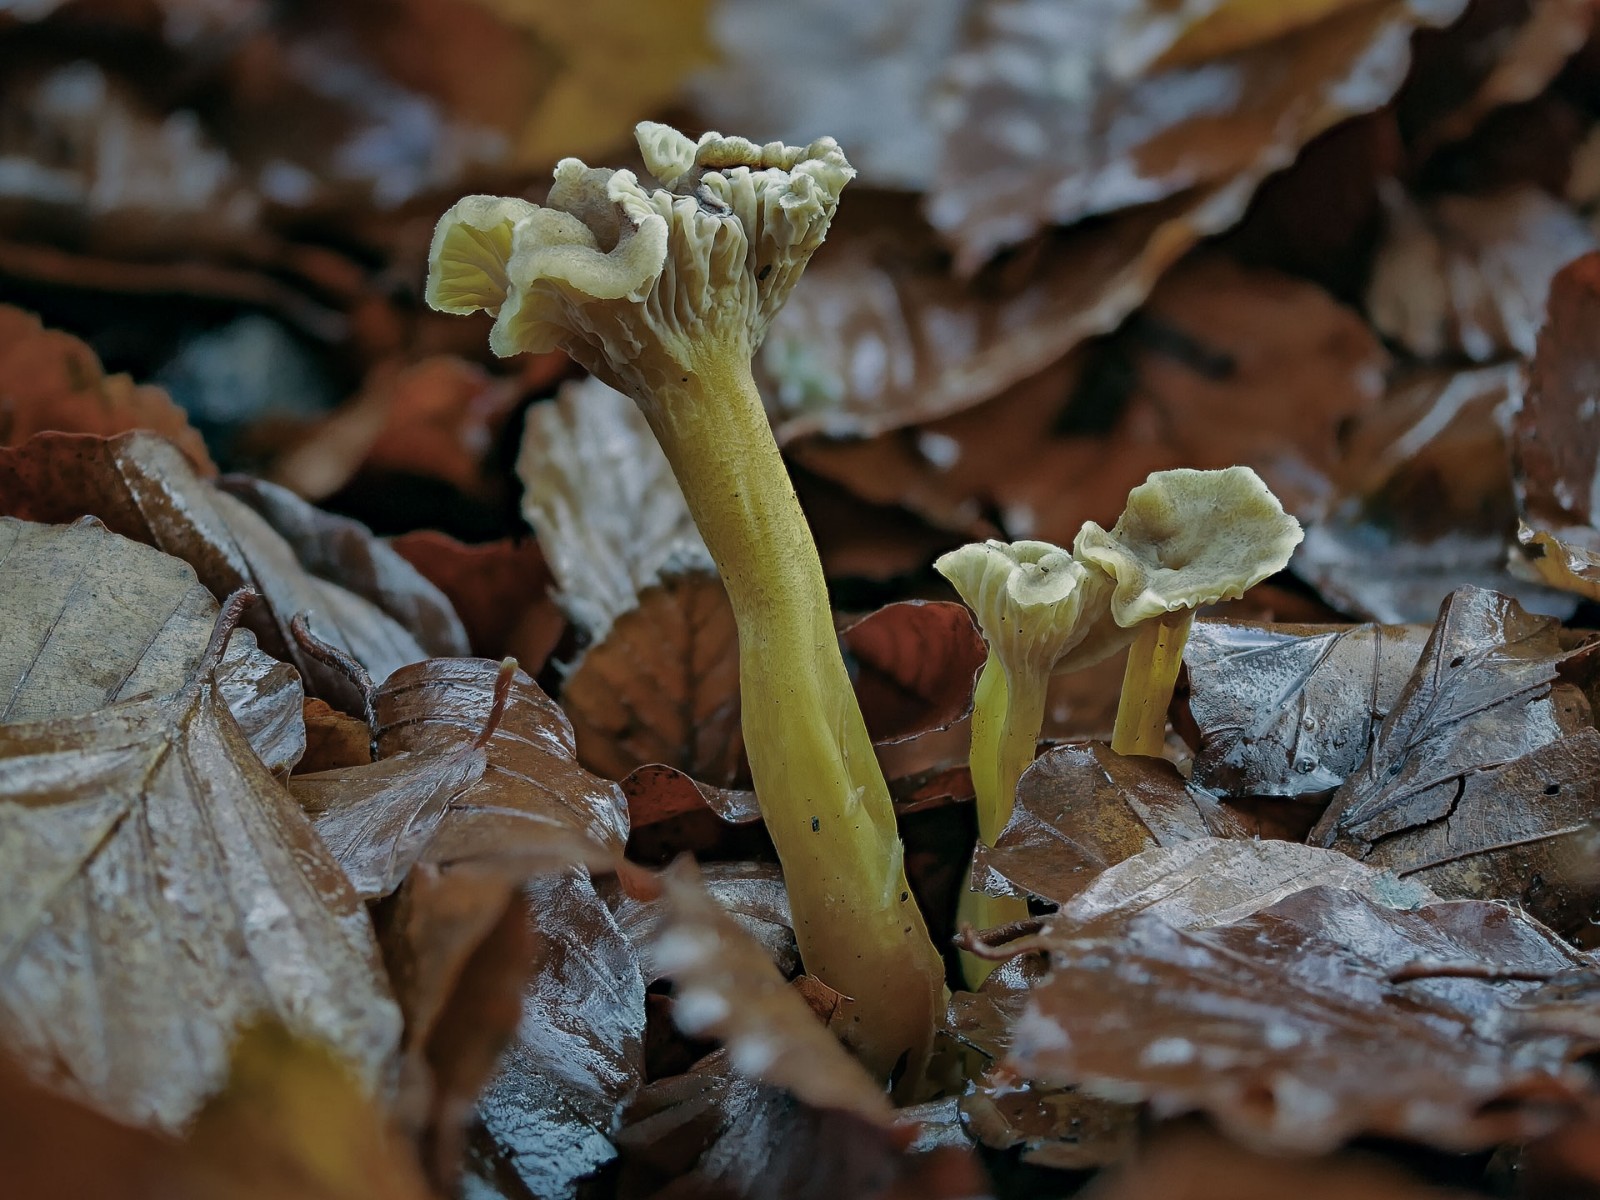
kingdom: Fungi
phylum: Basidiomycota
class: Agaricomycetes
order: Cantharellales
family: Hydnaceae
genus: Craterellus
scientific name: Craterellus tubaeformis
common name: tragt-kantarel
